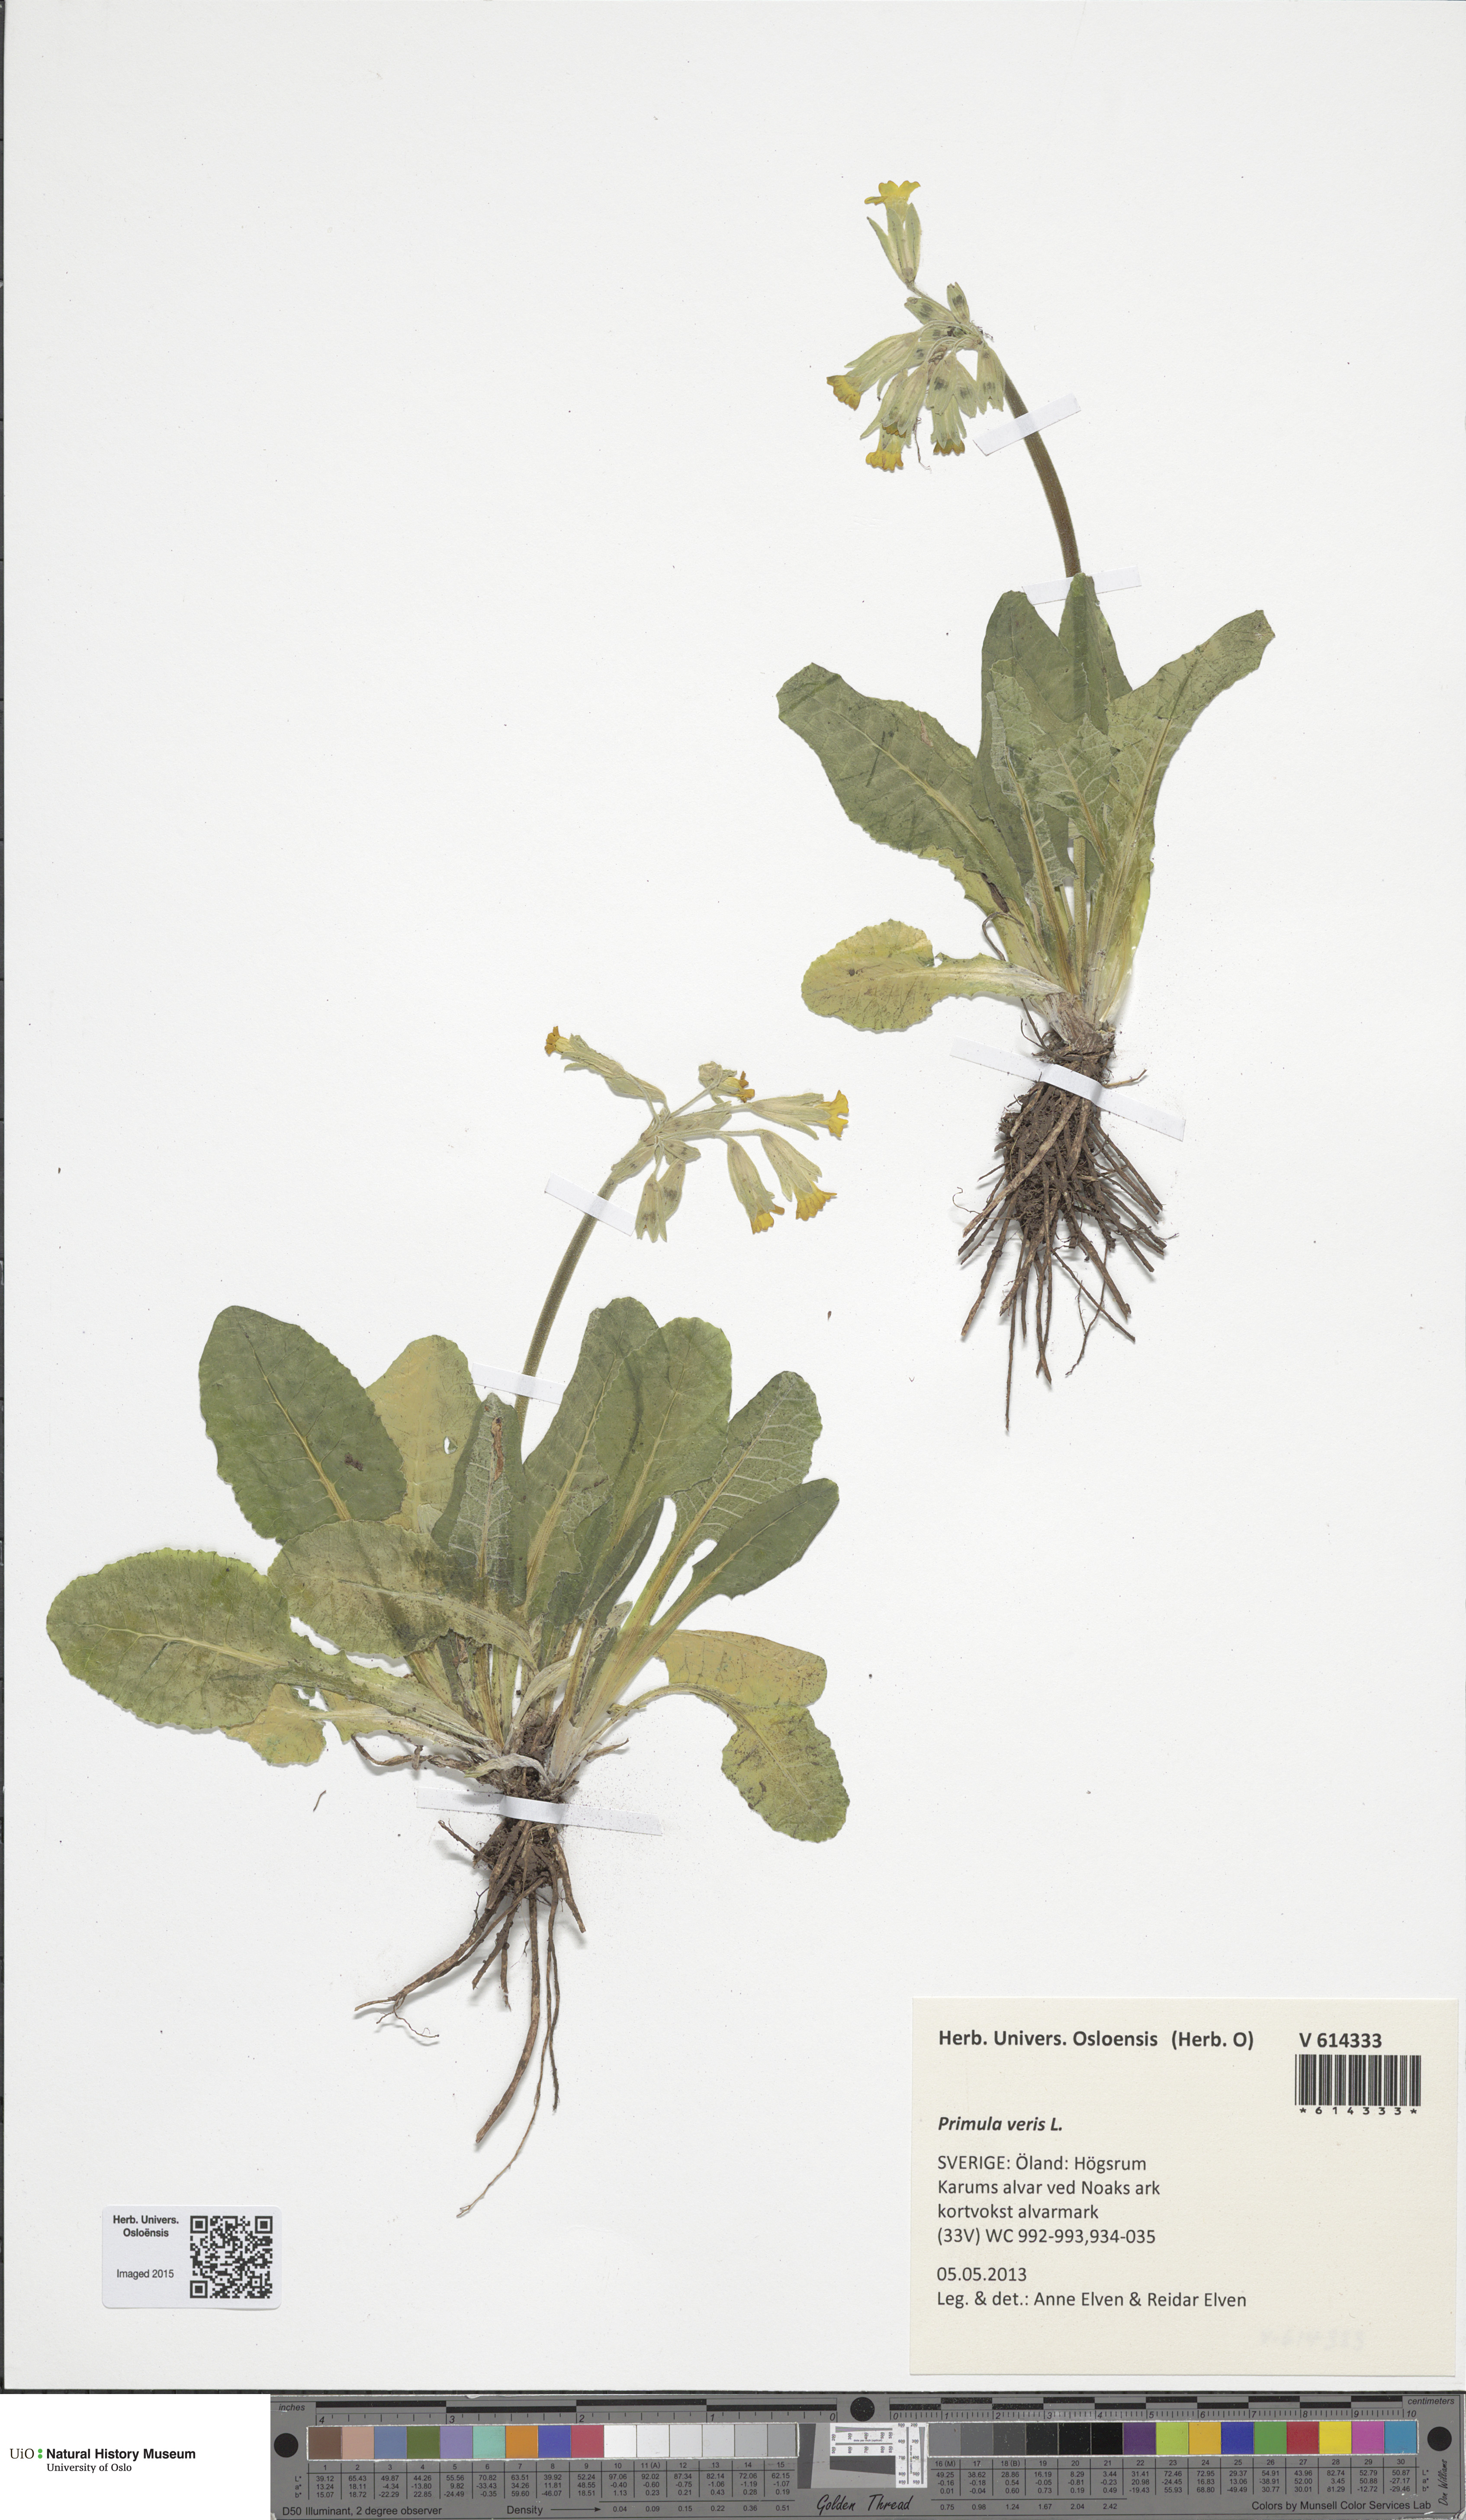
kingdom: Plantae
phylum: Tracheophyta
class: Magnoliopsida
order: Ericales
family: Primulaceae
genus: Primula
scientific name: Primula veris
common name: Cowslip
